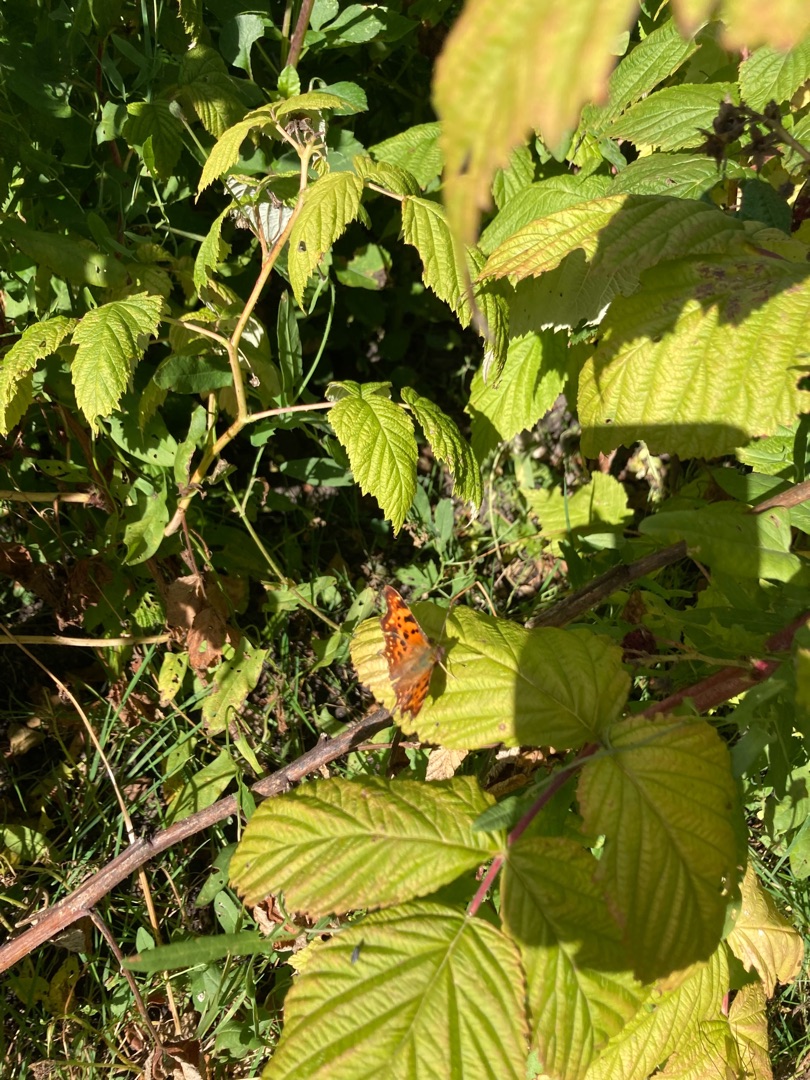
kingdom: Animalia
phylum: Arthropoda
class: Insecta
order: Lepidoptera
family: Nymphalidae
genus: Polygonia
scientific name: Polygonia c-album
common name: Det hvide C
